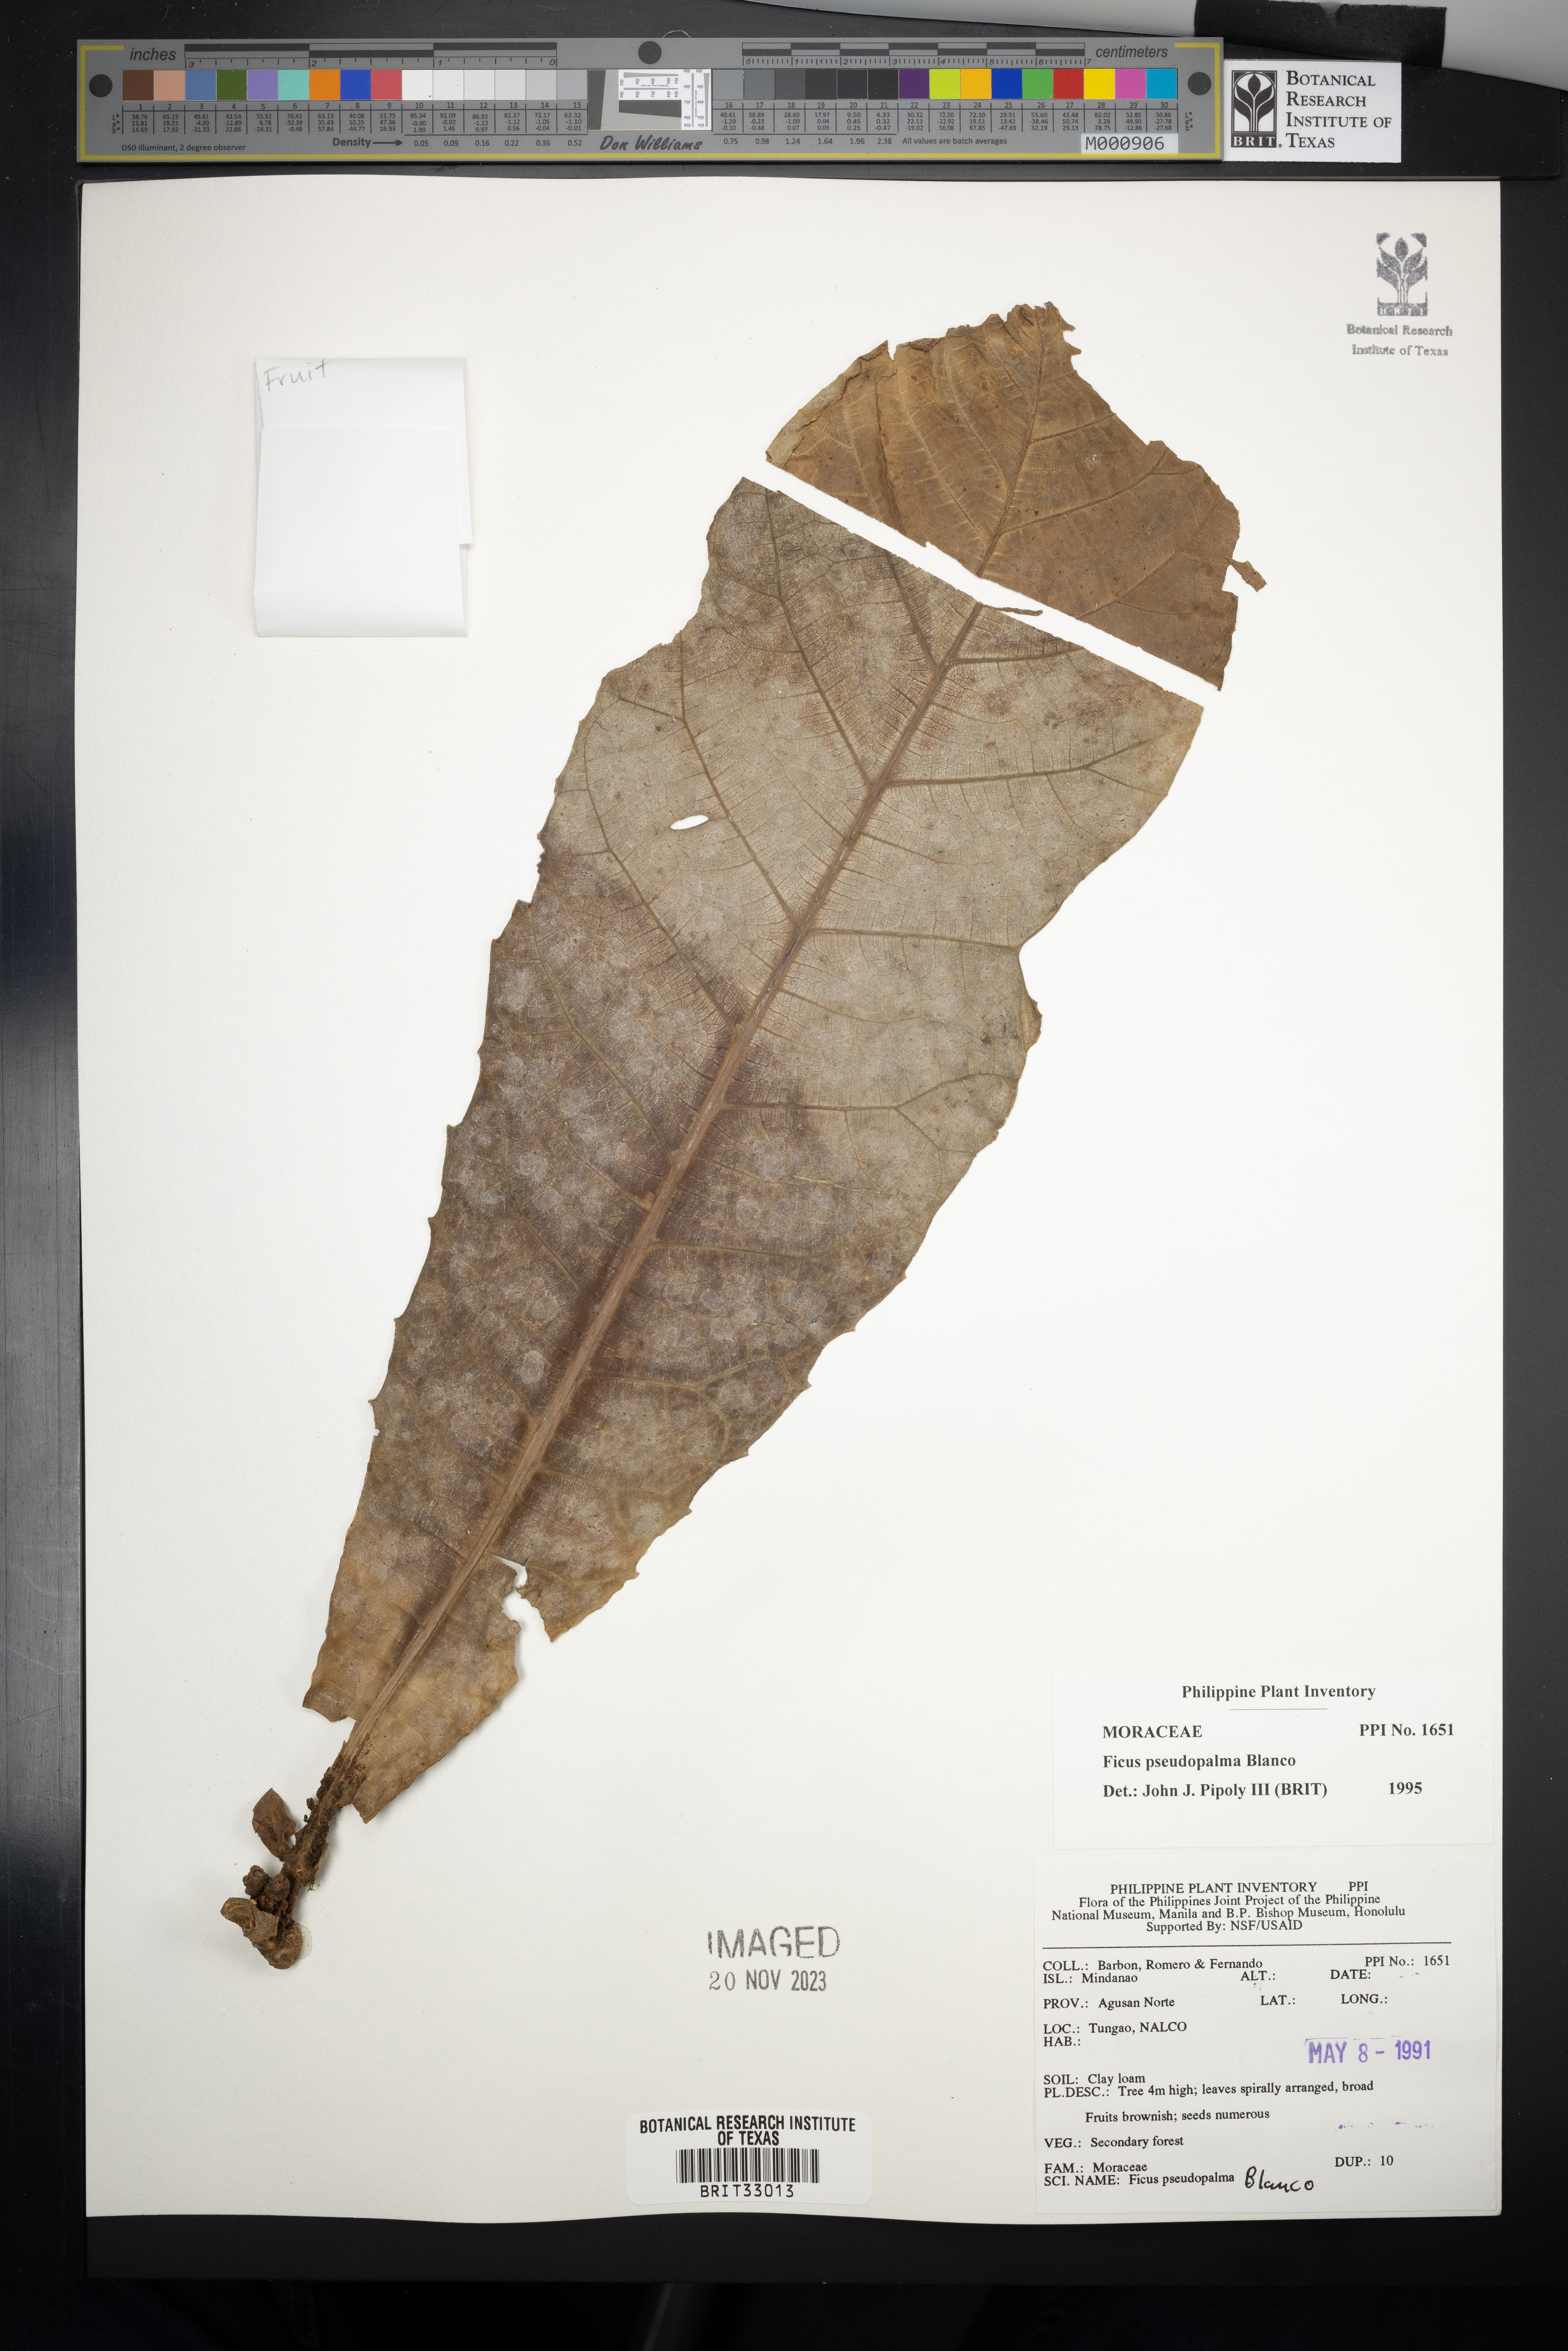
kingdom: Plantae
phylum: Tracheophyta
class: Magnoliopsida
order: Rosales
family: Moraceae
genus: Ficus
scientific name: Ficus pseudopalma
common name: Palm-like fig
